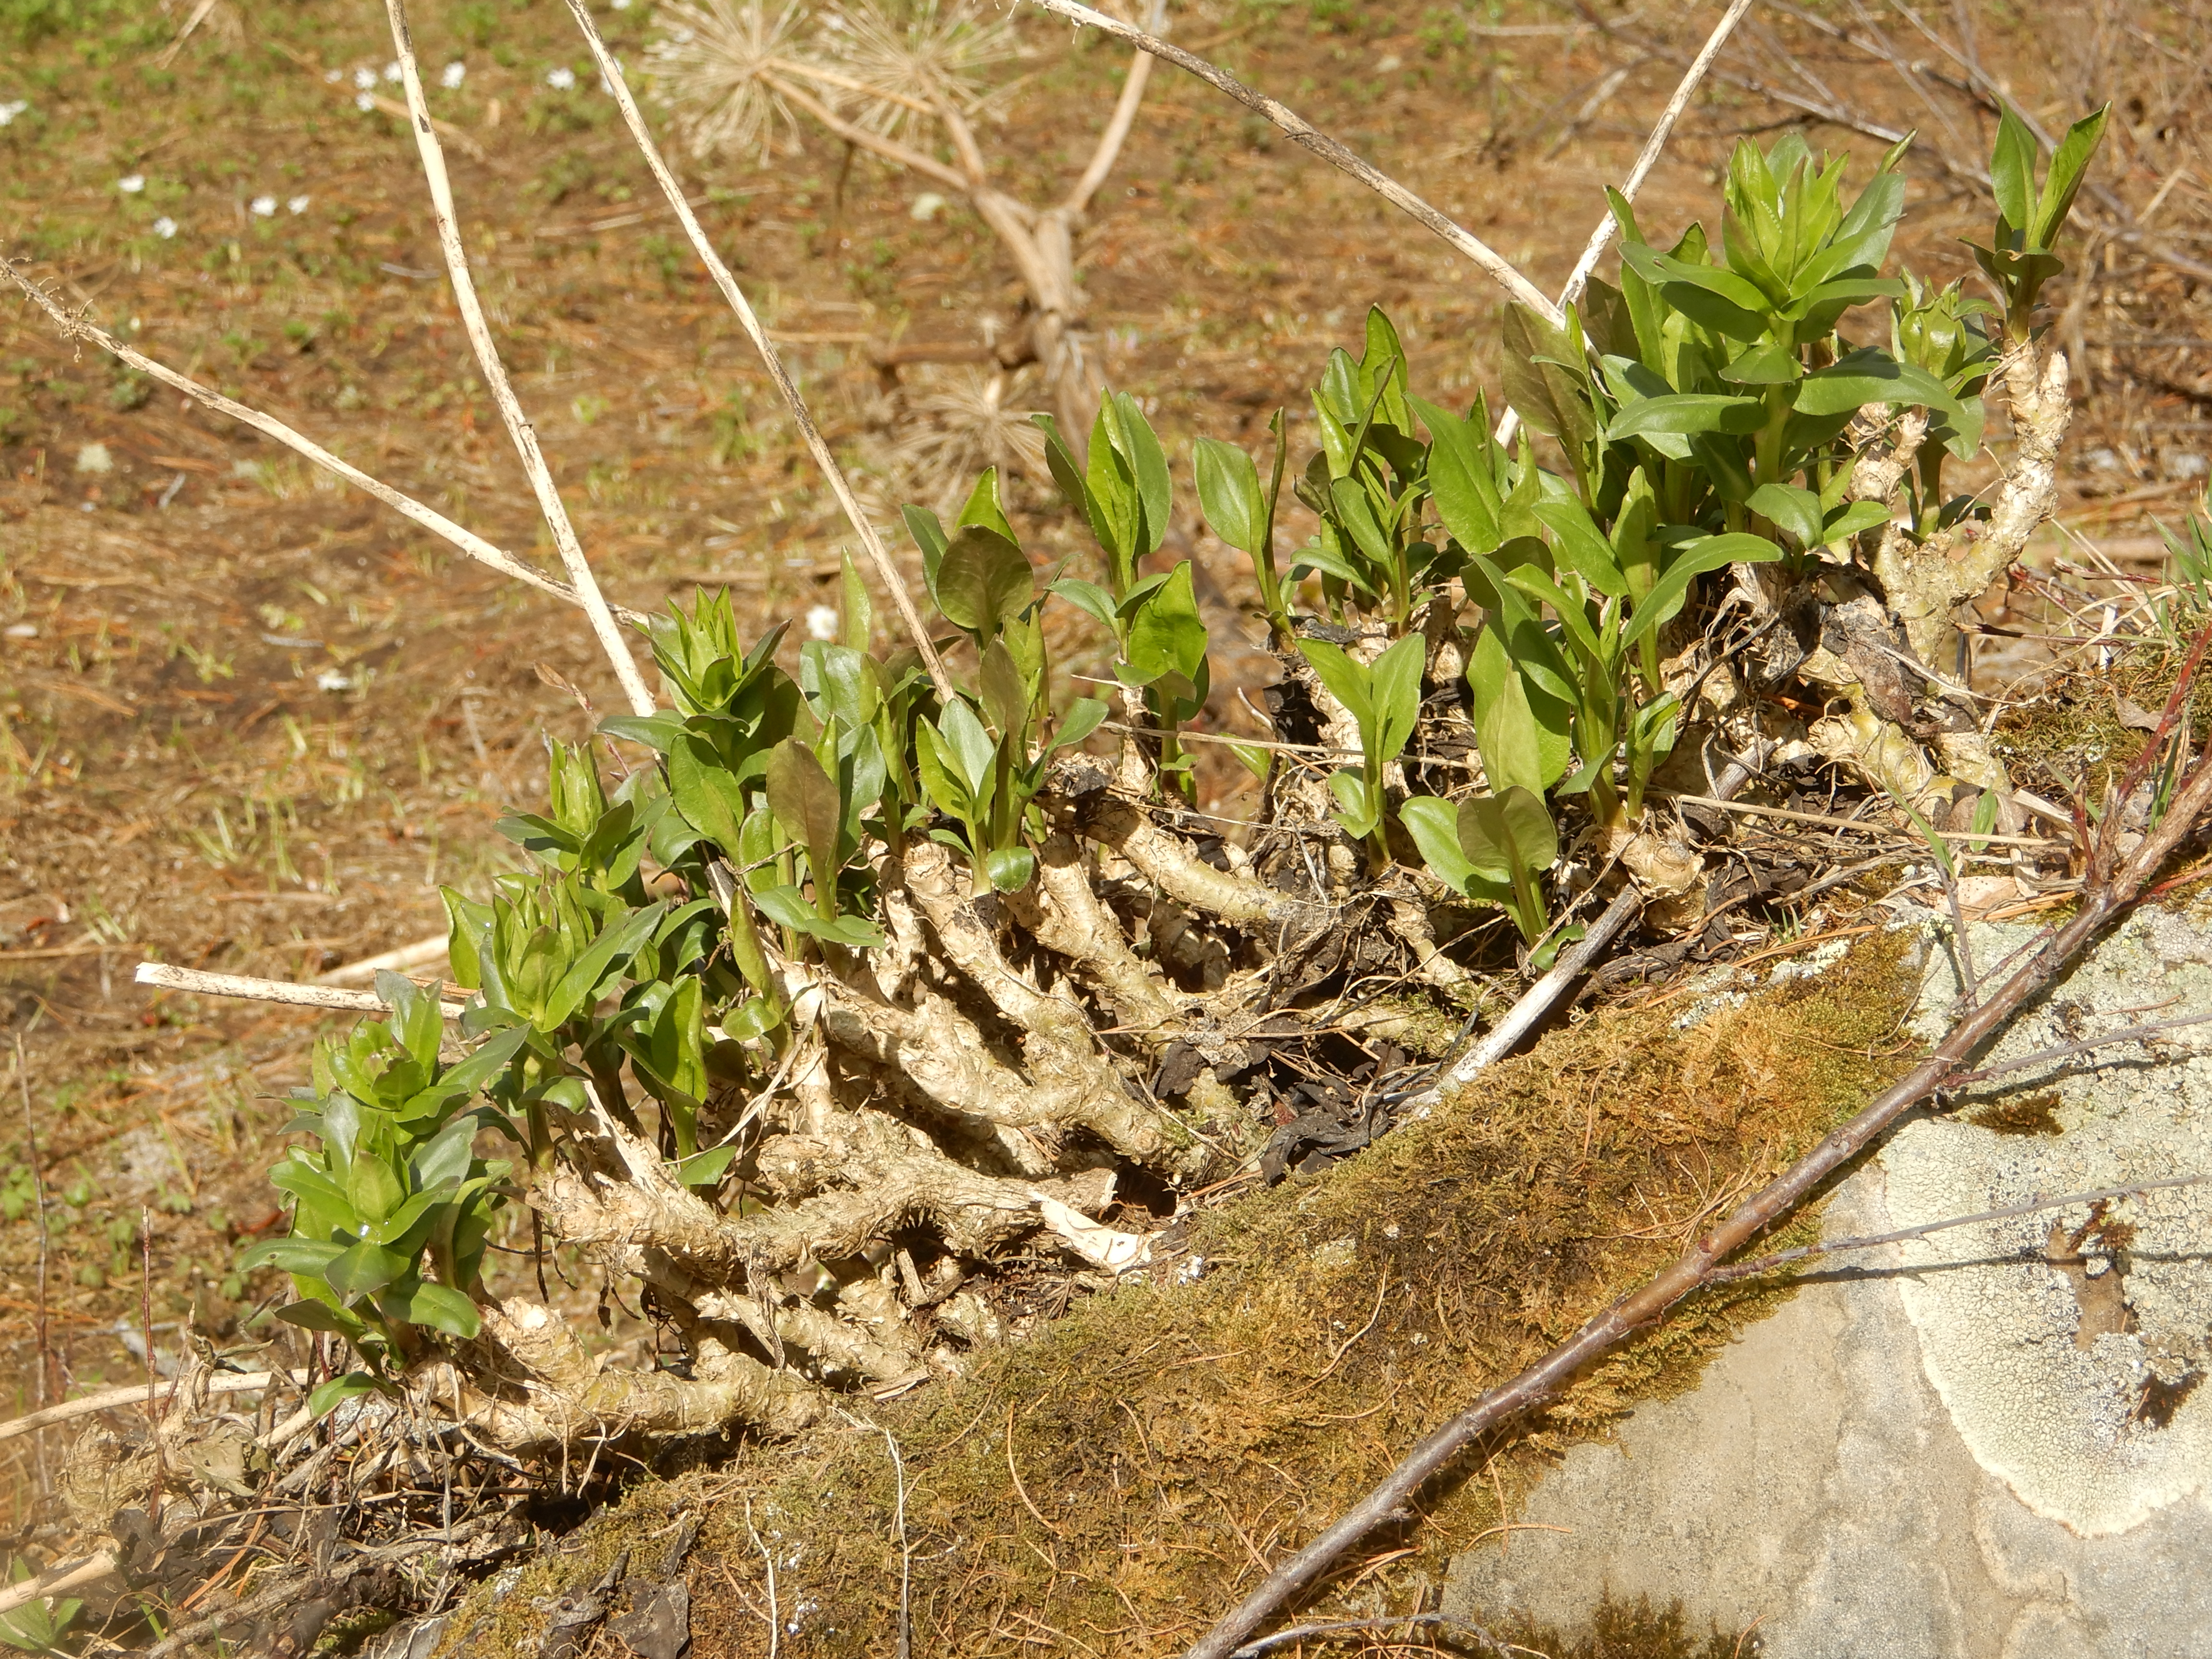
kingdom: Plantae
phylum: Tracheophyta
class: Magnoliopsida
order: Brassicales
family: Brassicaceae
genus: Macropodium
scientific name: Macropodium nivale
